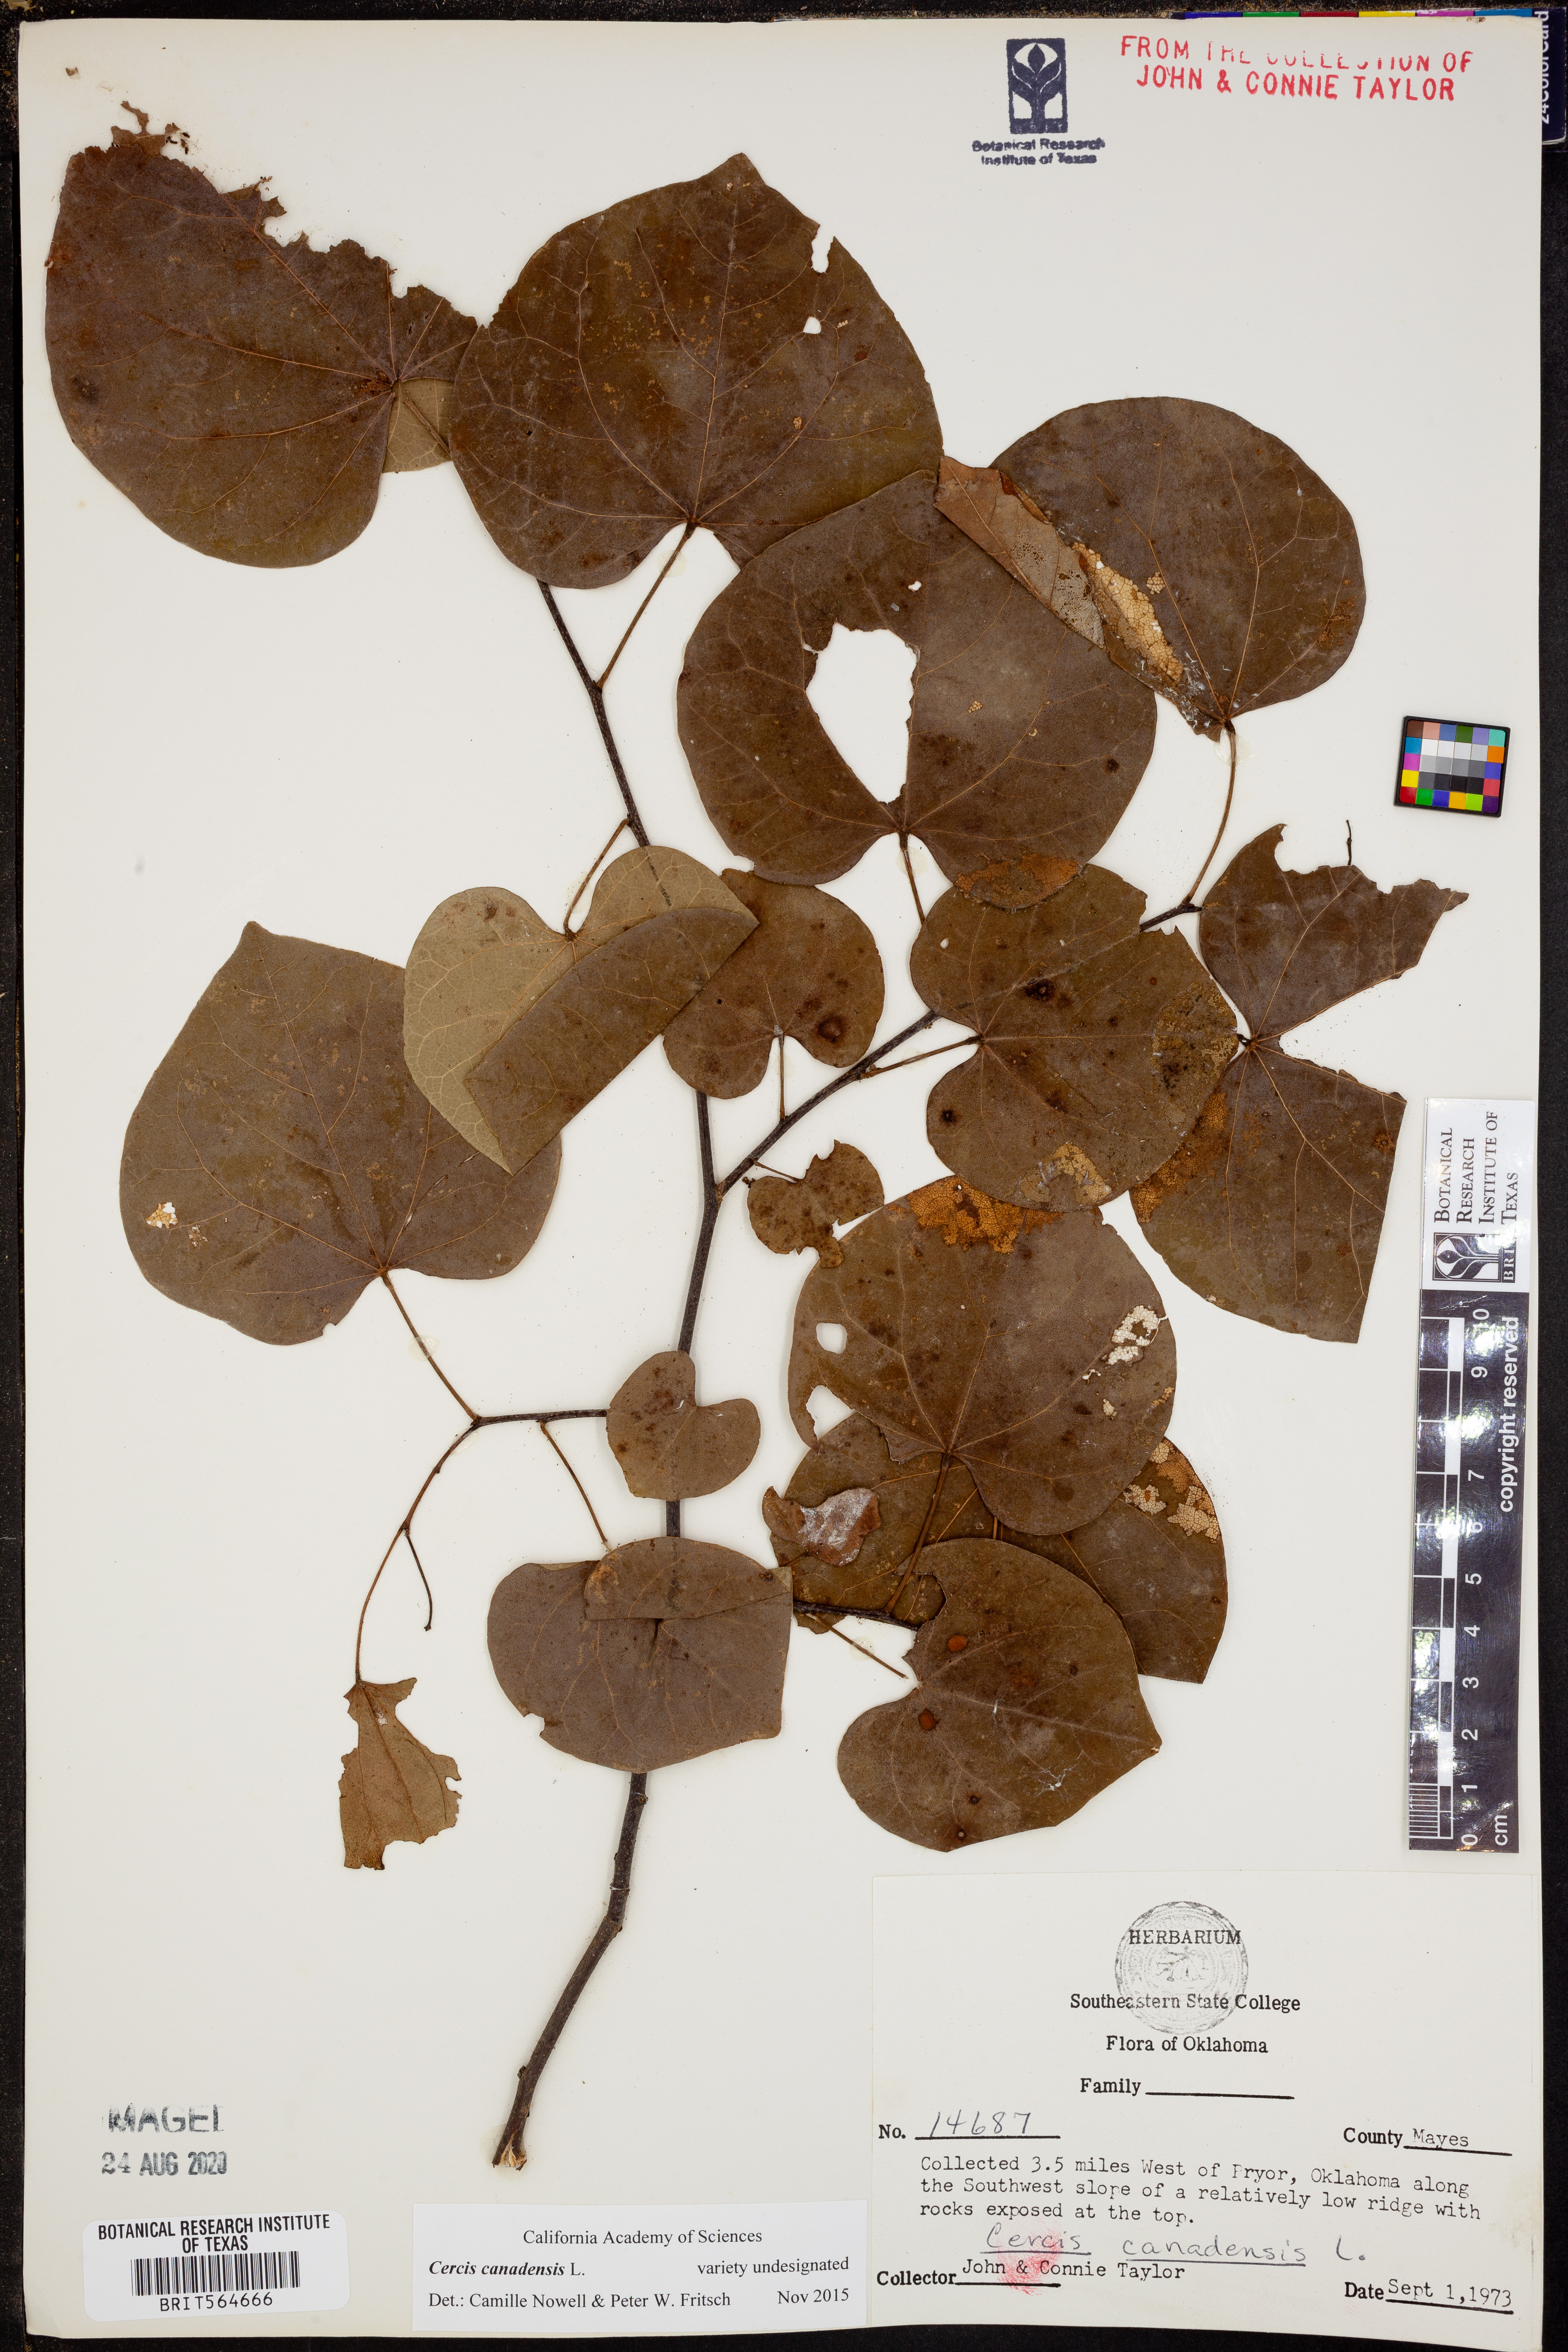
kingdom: Plantae
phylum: Tracheophyta
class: Magnoliopsida
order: Fabales
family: Fabaceae
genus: Cercis
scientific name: Cercis canadensis
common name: Eastern redbud
